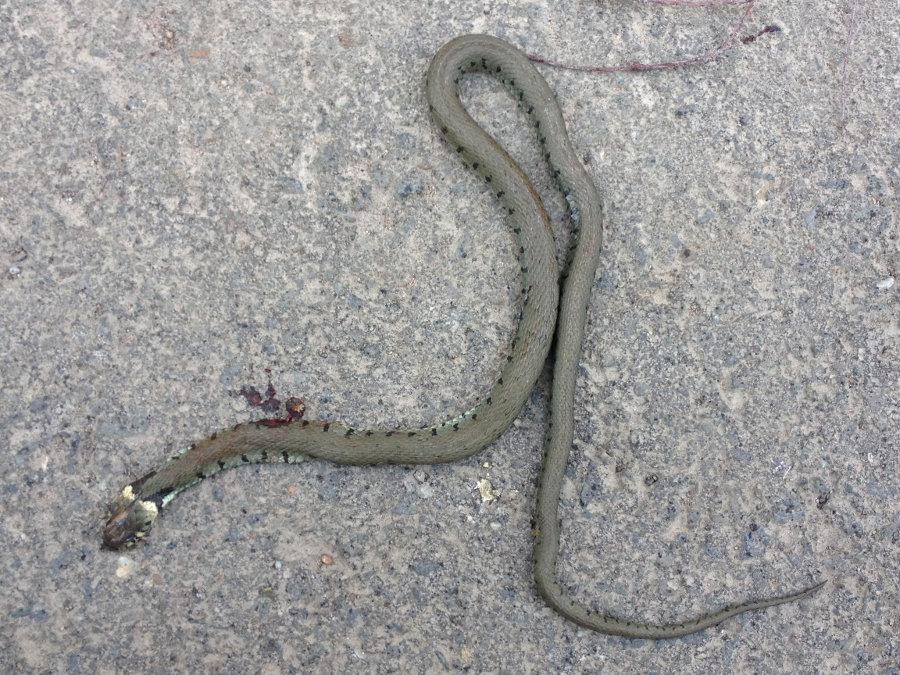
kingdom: Animalia
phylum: Chordata
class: Squamata
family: Colubridae
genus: Natrix
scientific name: Natrix natrix
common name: Grass snake
